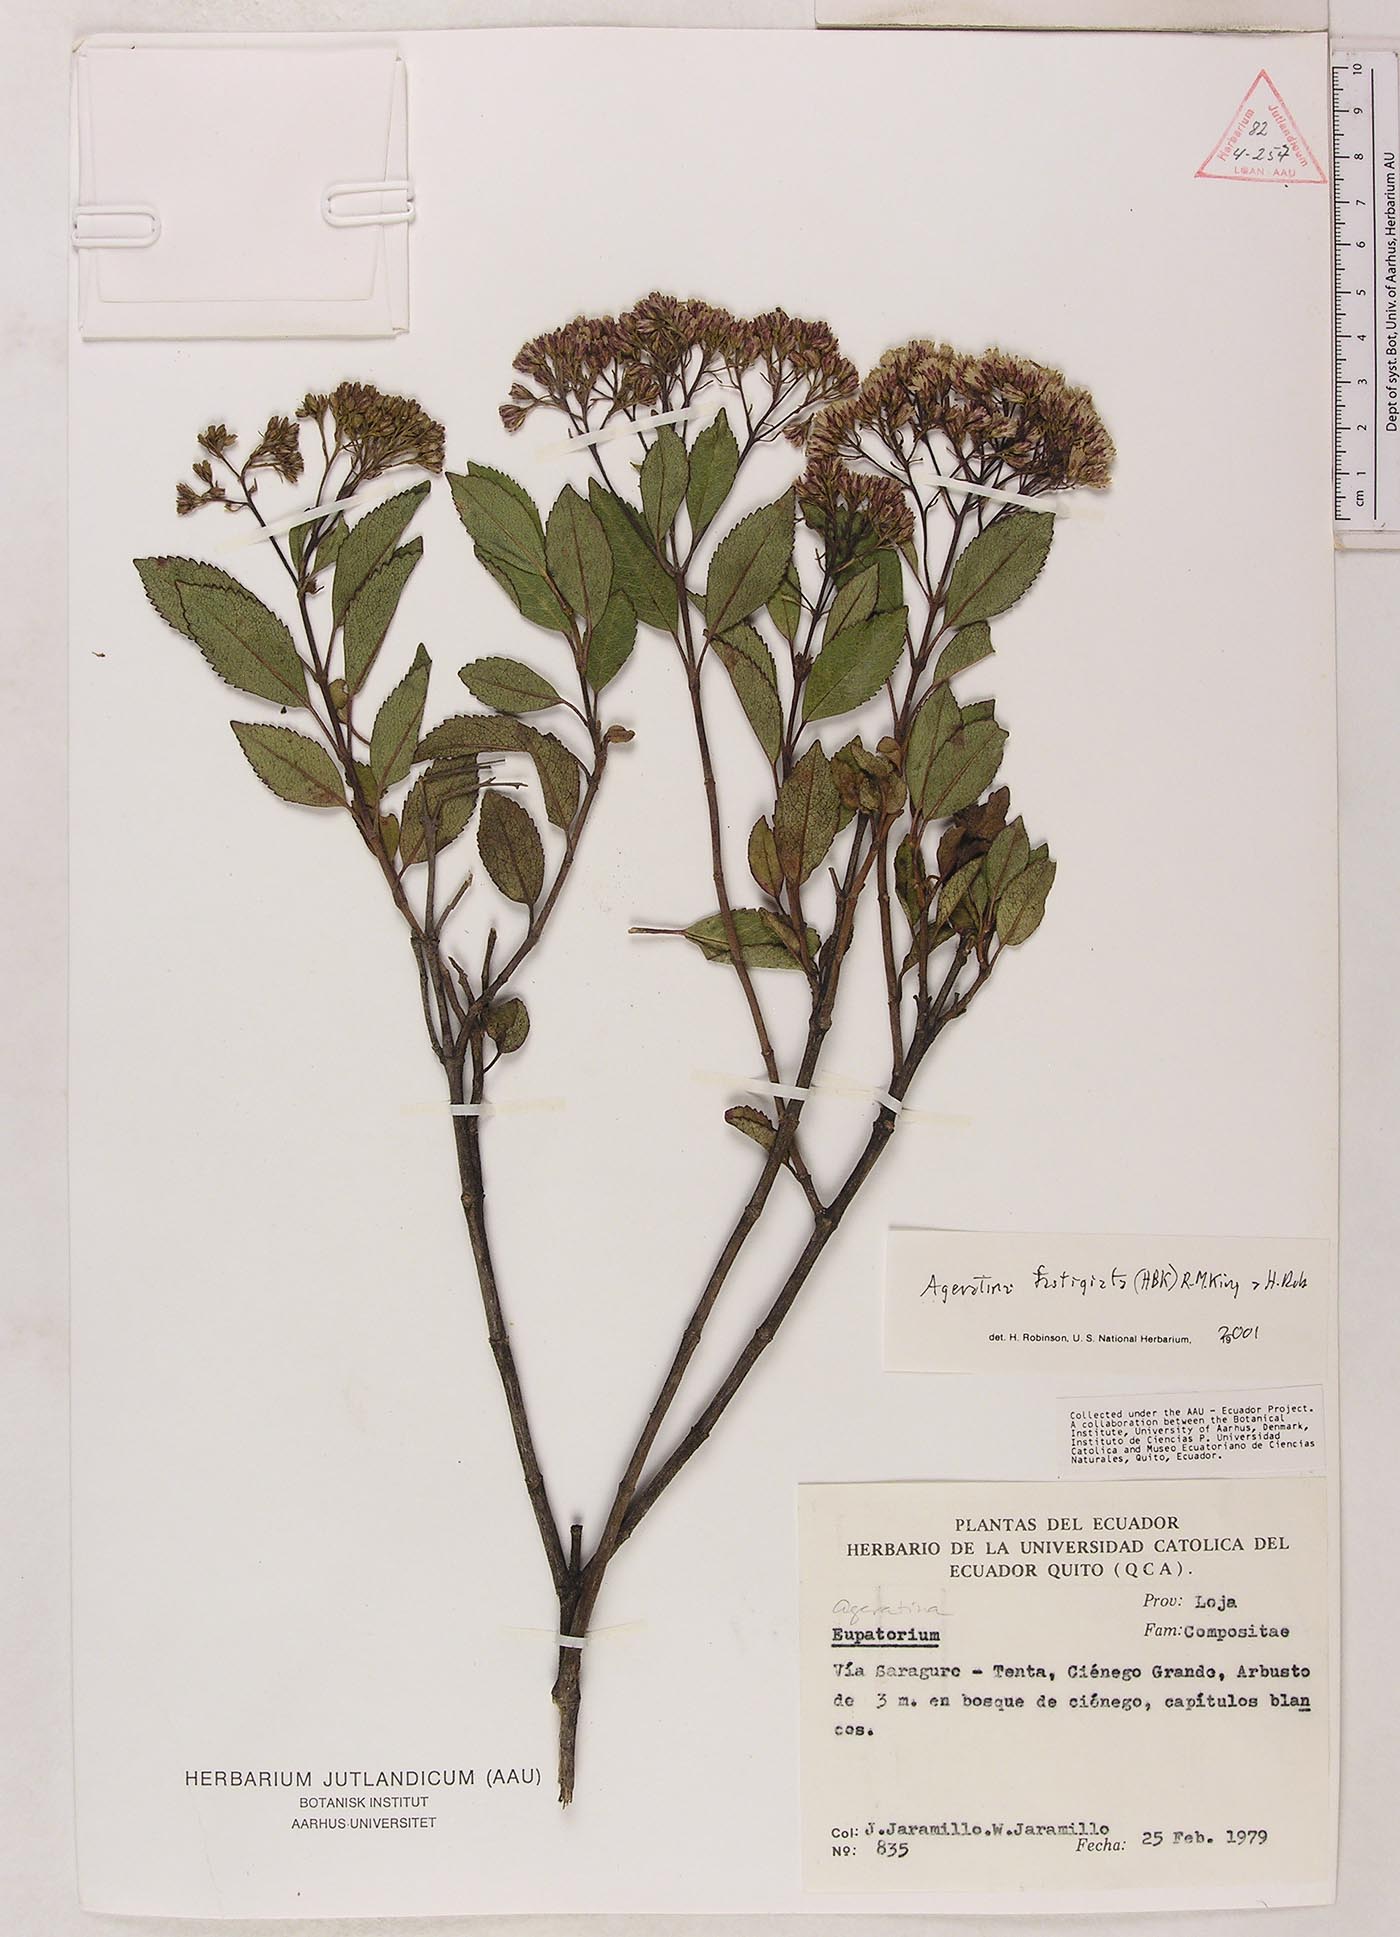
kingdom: Plantae
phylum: Tracheophyta
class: Magnoliopsida
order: Asterales
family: Asteraceae
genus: Ageratina
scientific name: Ageratina fastigiata
